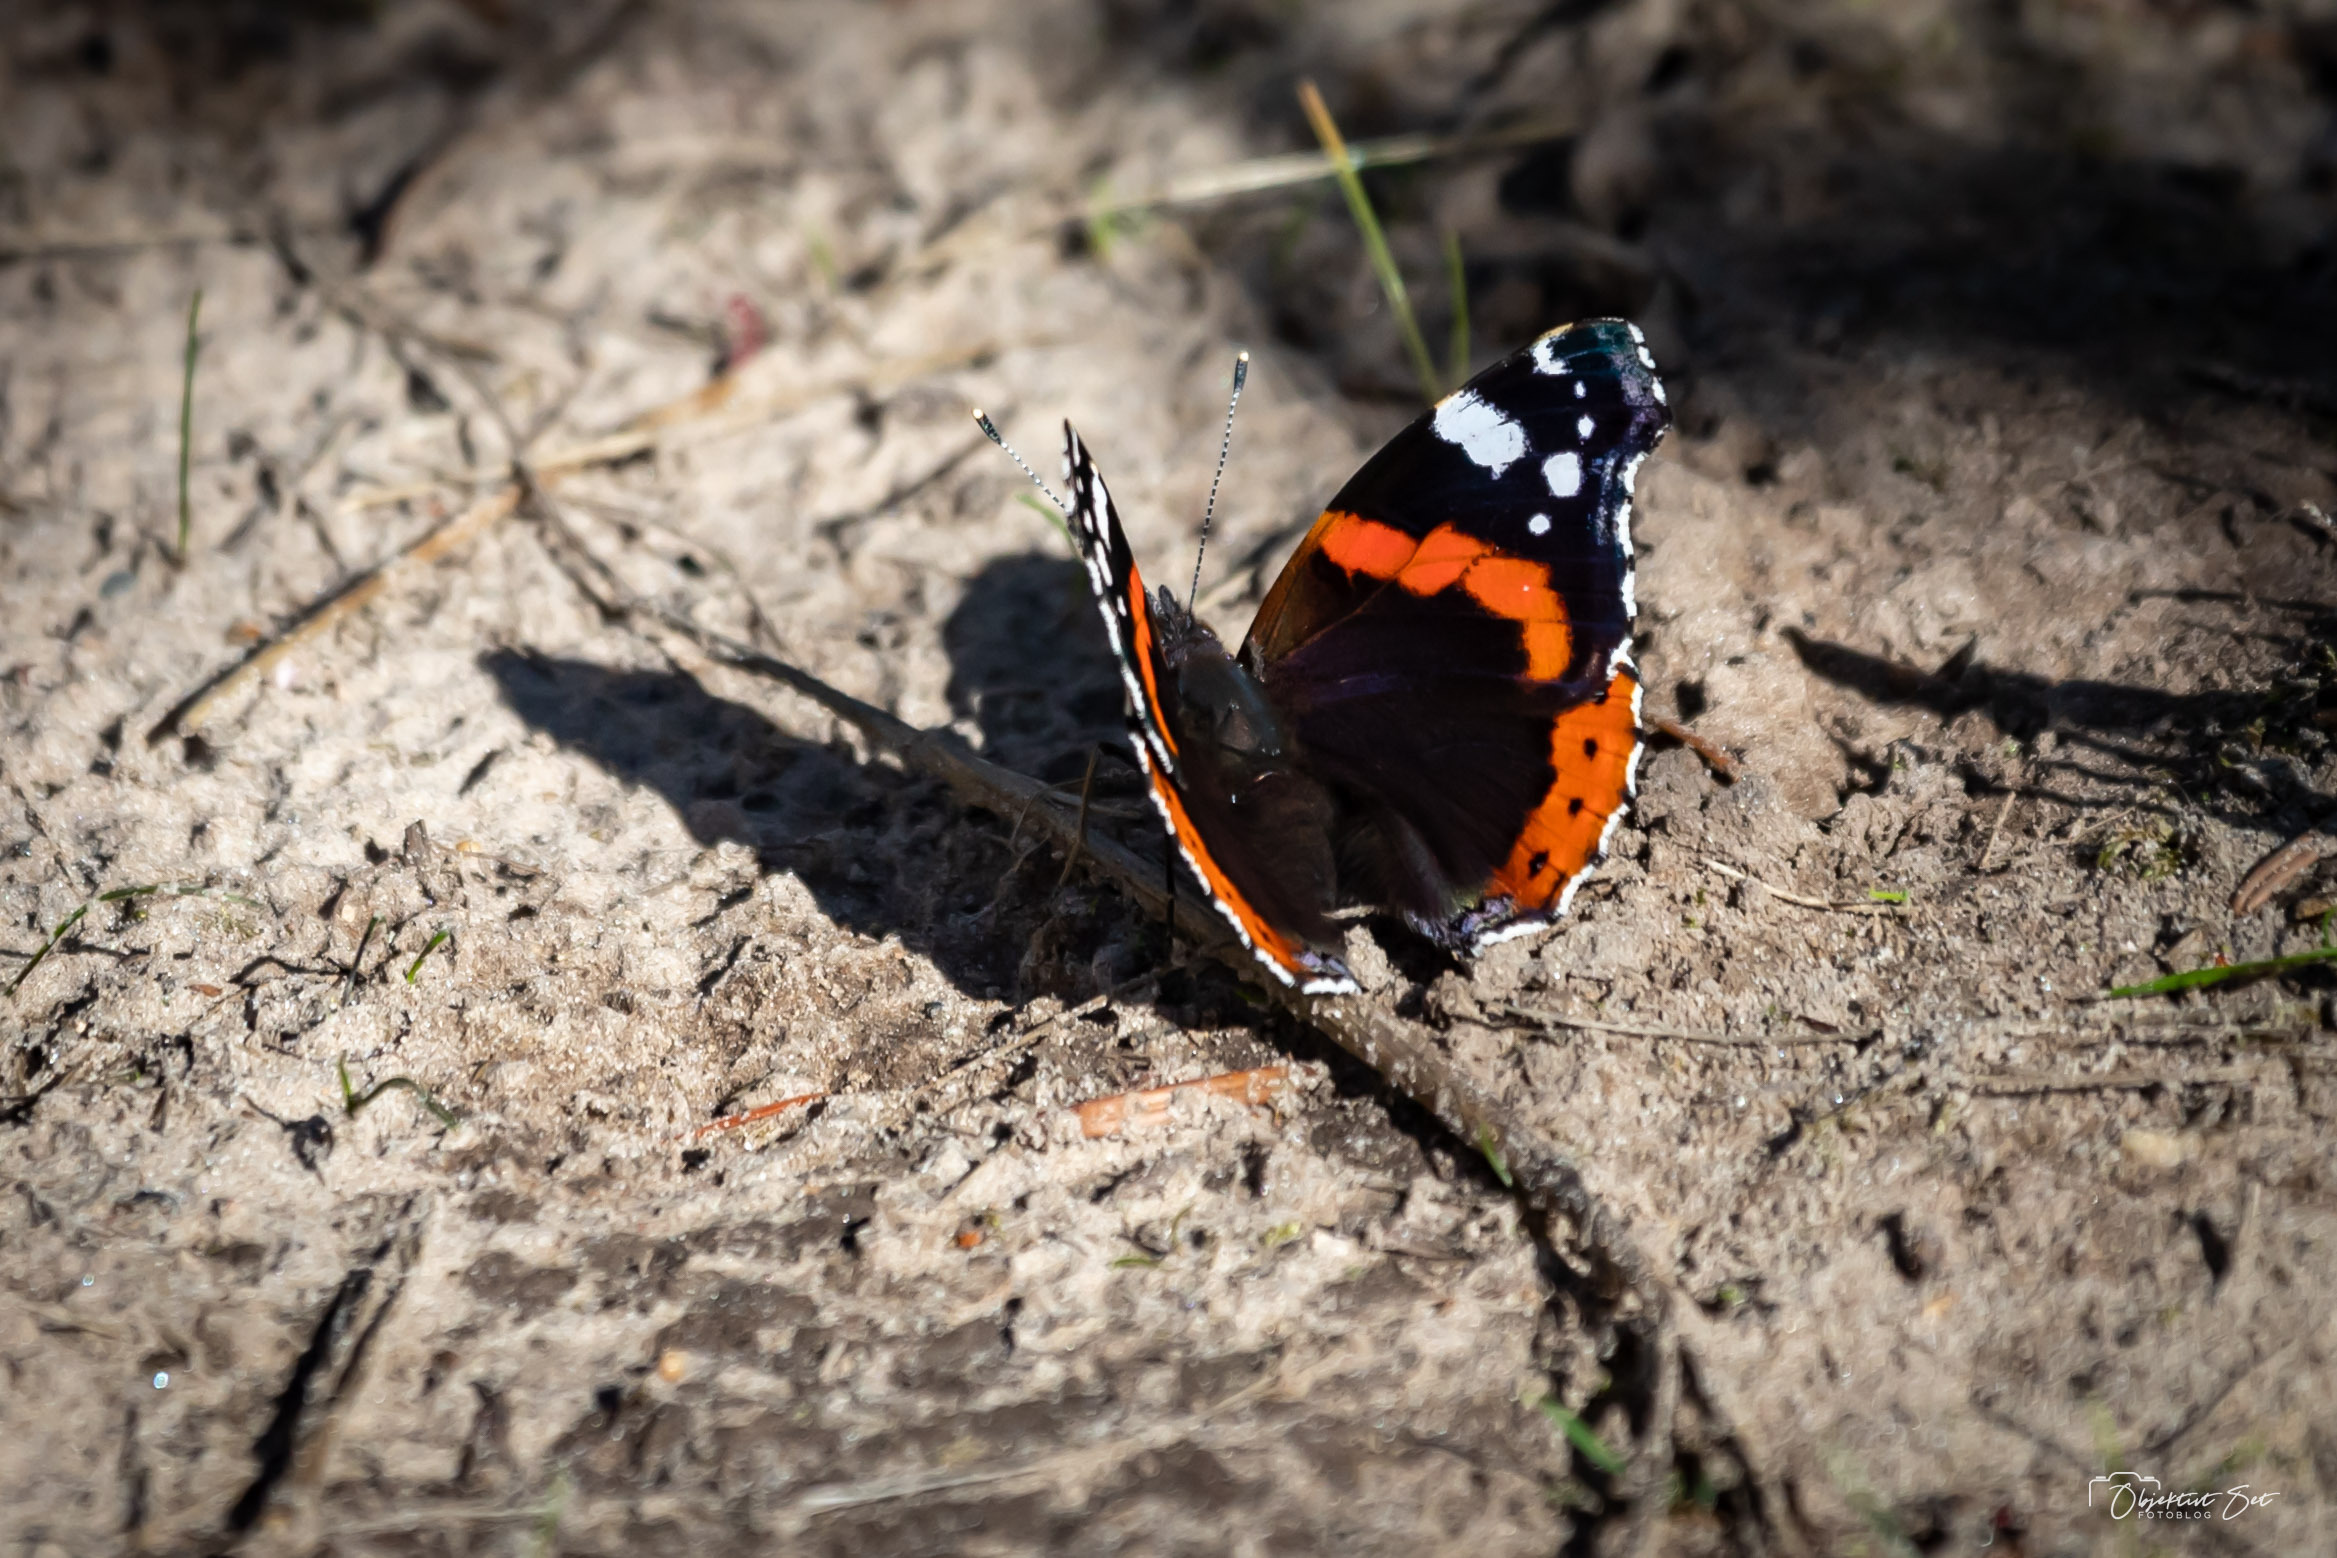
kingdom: Animalia
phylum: Arthropoda
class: Insecta
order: Lepidoptera
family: Nymphalidae
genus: Vanessa
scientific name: Vanessa atalanta
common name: Admiral
